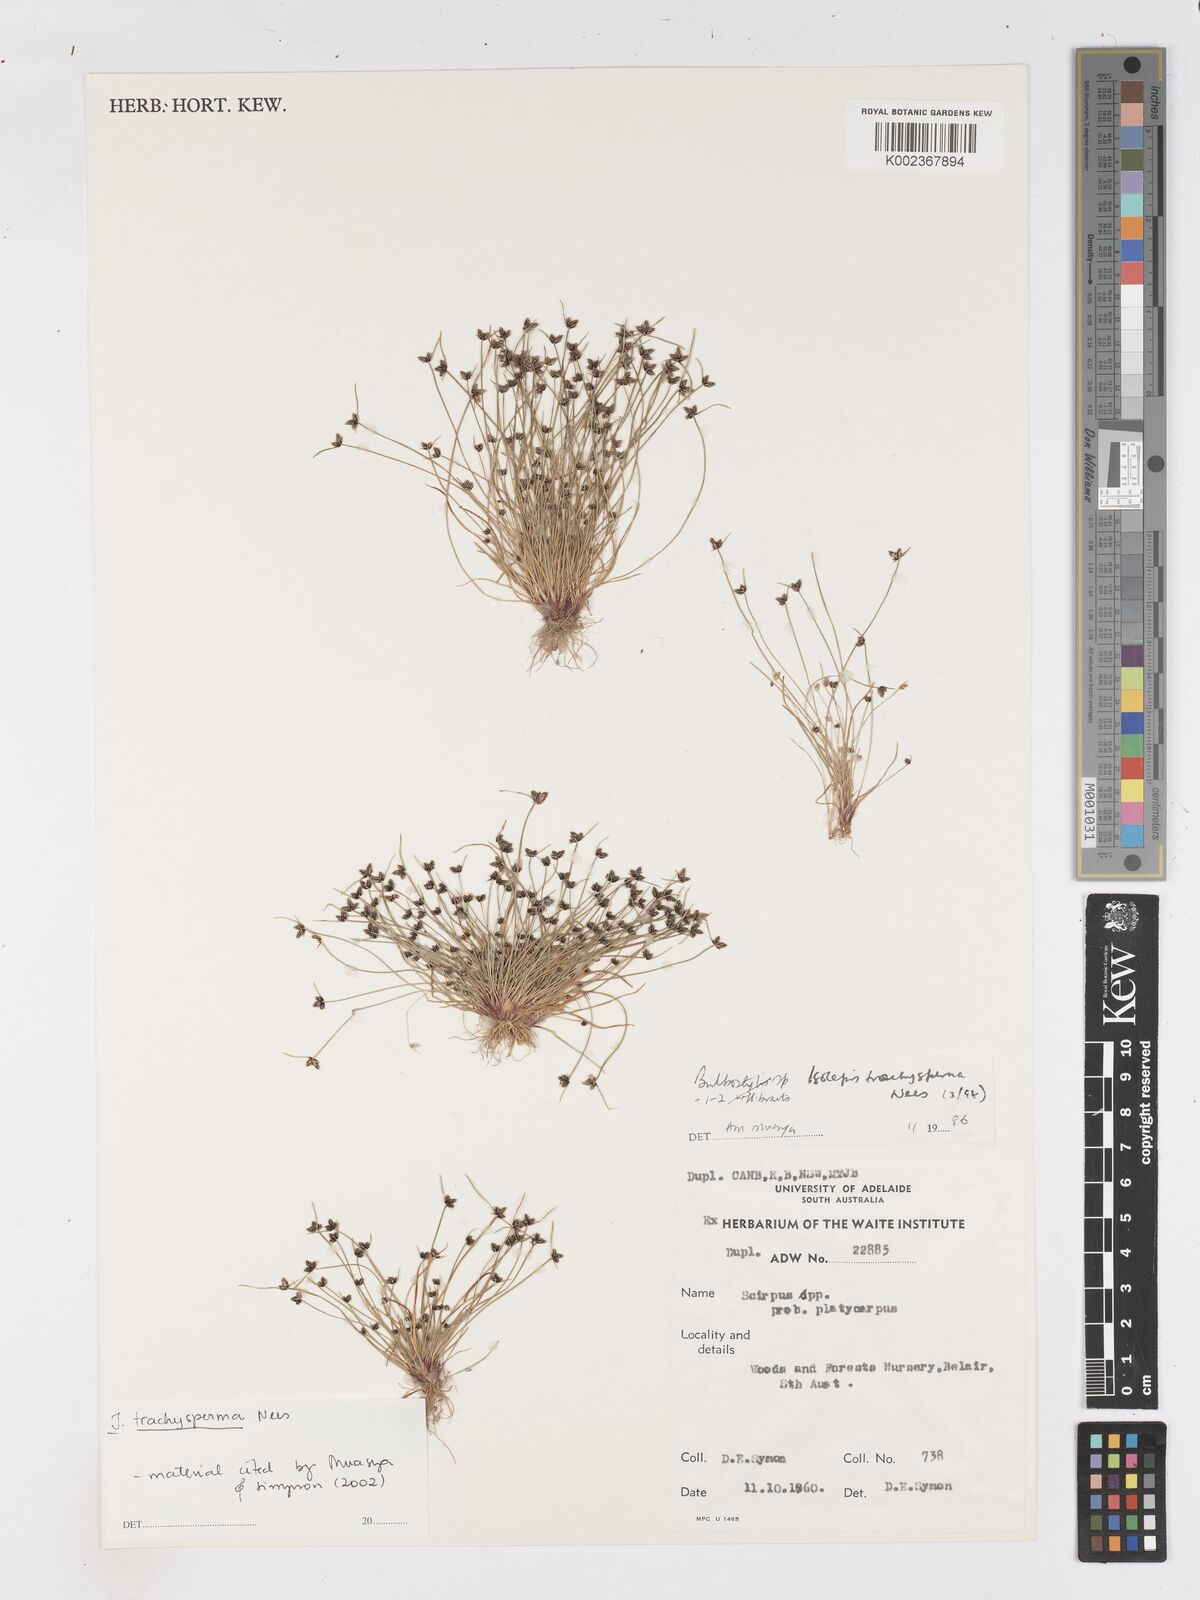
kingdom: Plantae
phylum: Tracheophyta
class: Liliopsida
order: Poales
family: Cyperaceae
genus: Isolepis
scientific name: Isolepis trachysperma
